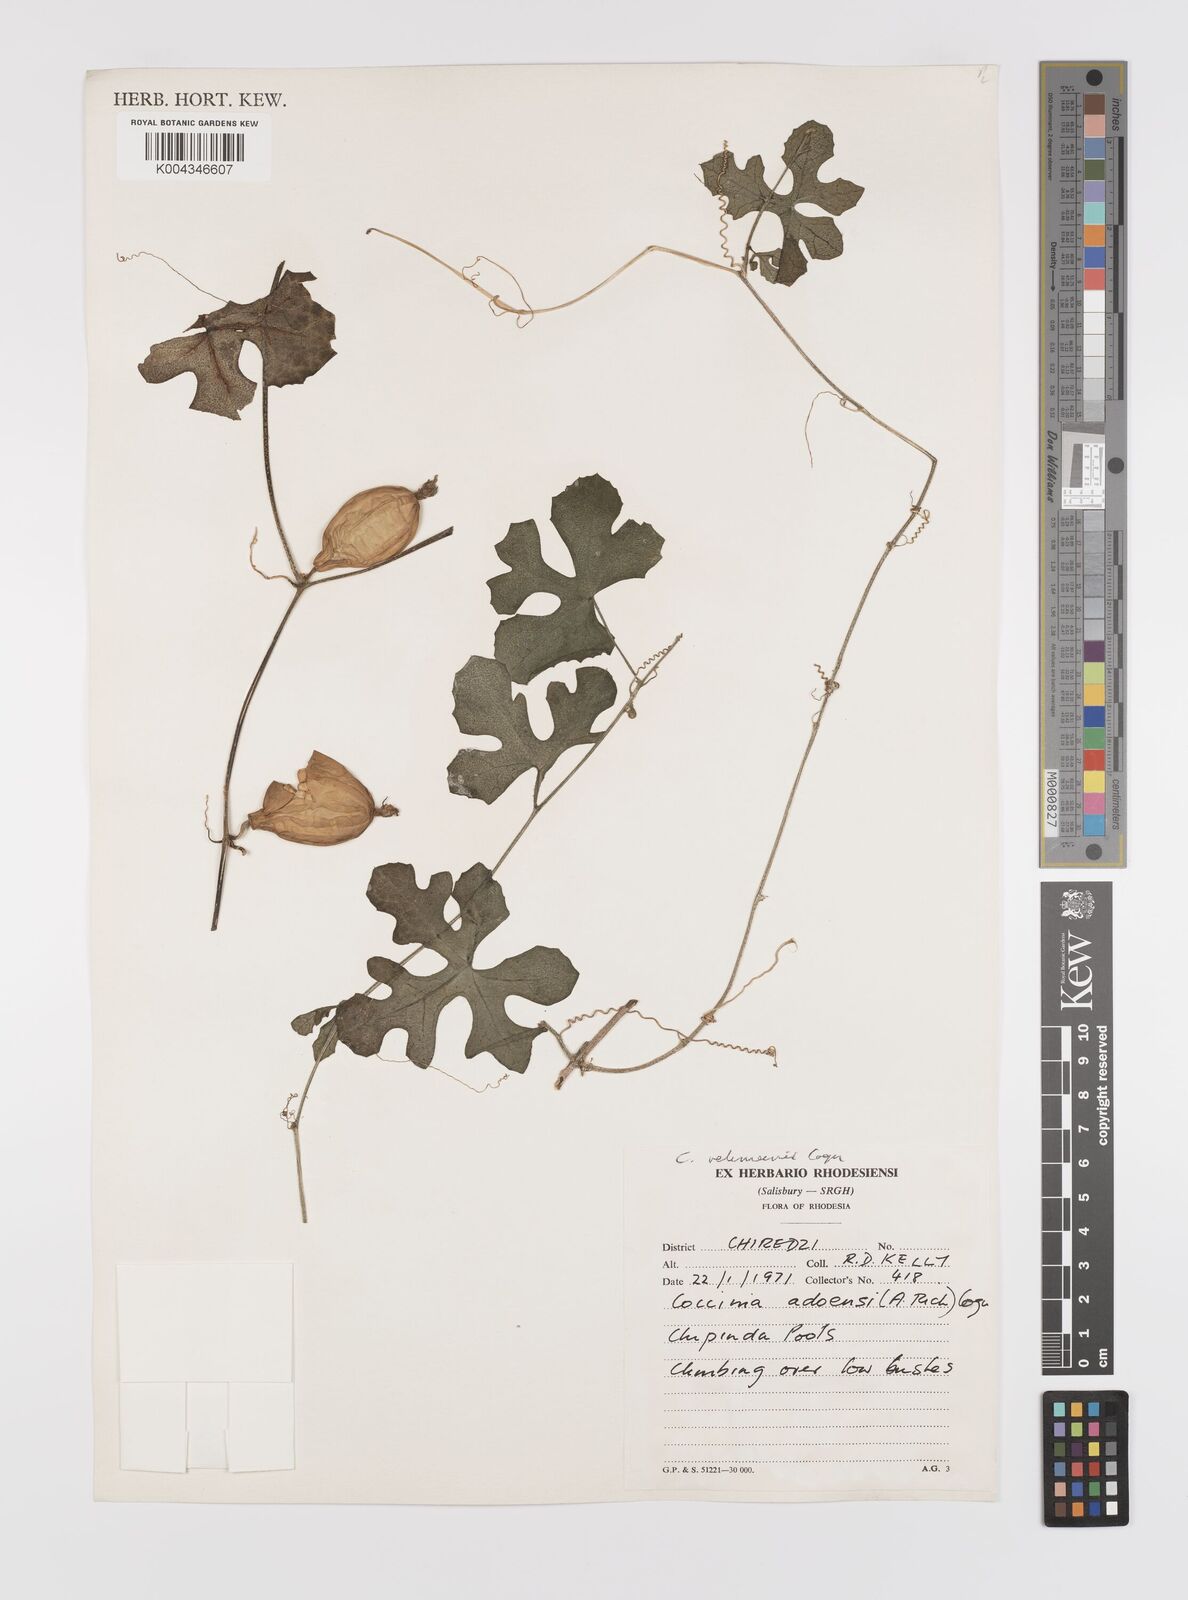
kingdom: Plantae
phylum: Tracheophyta
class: Magnoliopsida
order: Cucurbitales
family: Cucurbitaceae
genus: Coccinia
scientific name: Coccinia rehmannii
